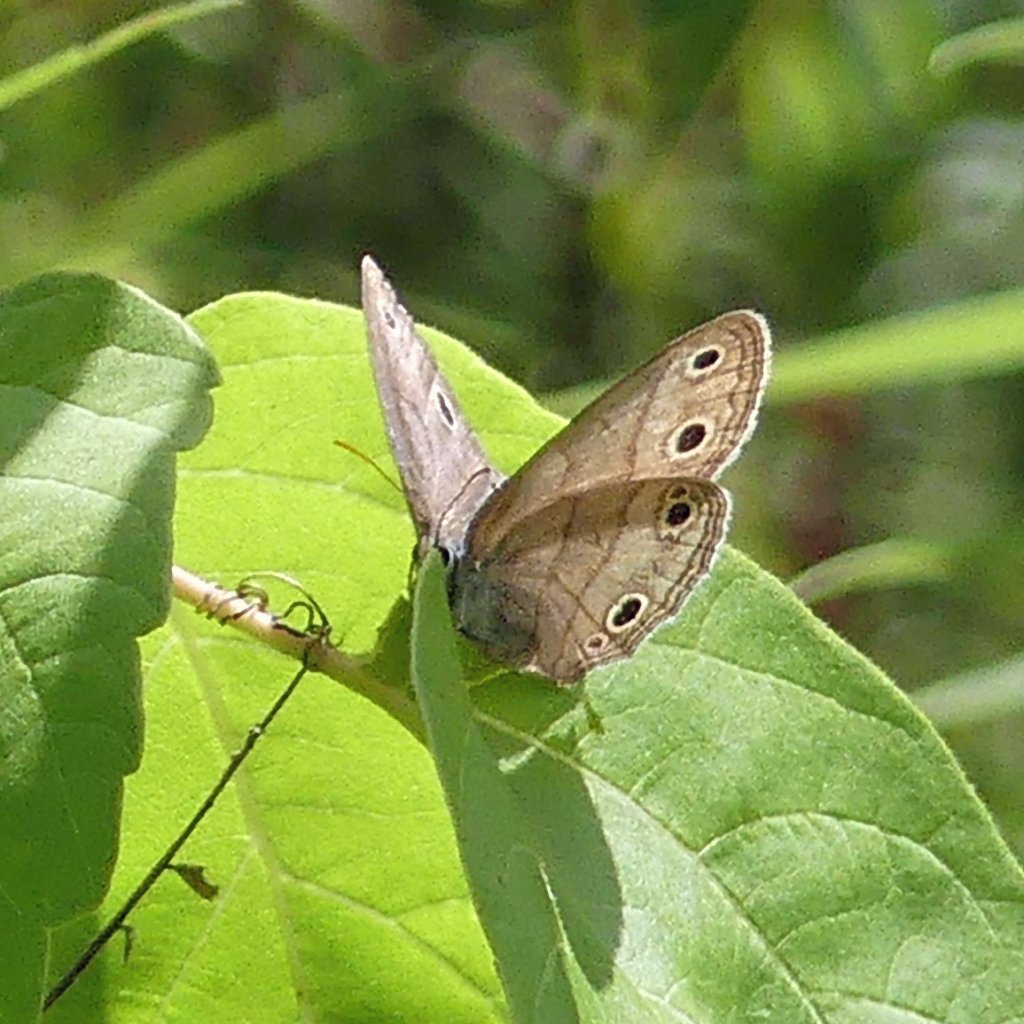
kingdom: Animalia
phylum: Arthropoda
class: Insecta
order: Lepidoptera
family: Nymphalidae
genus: Euptychia
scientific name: Euptychia cymela
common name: Little Wood Satyr
